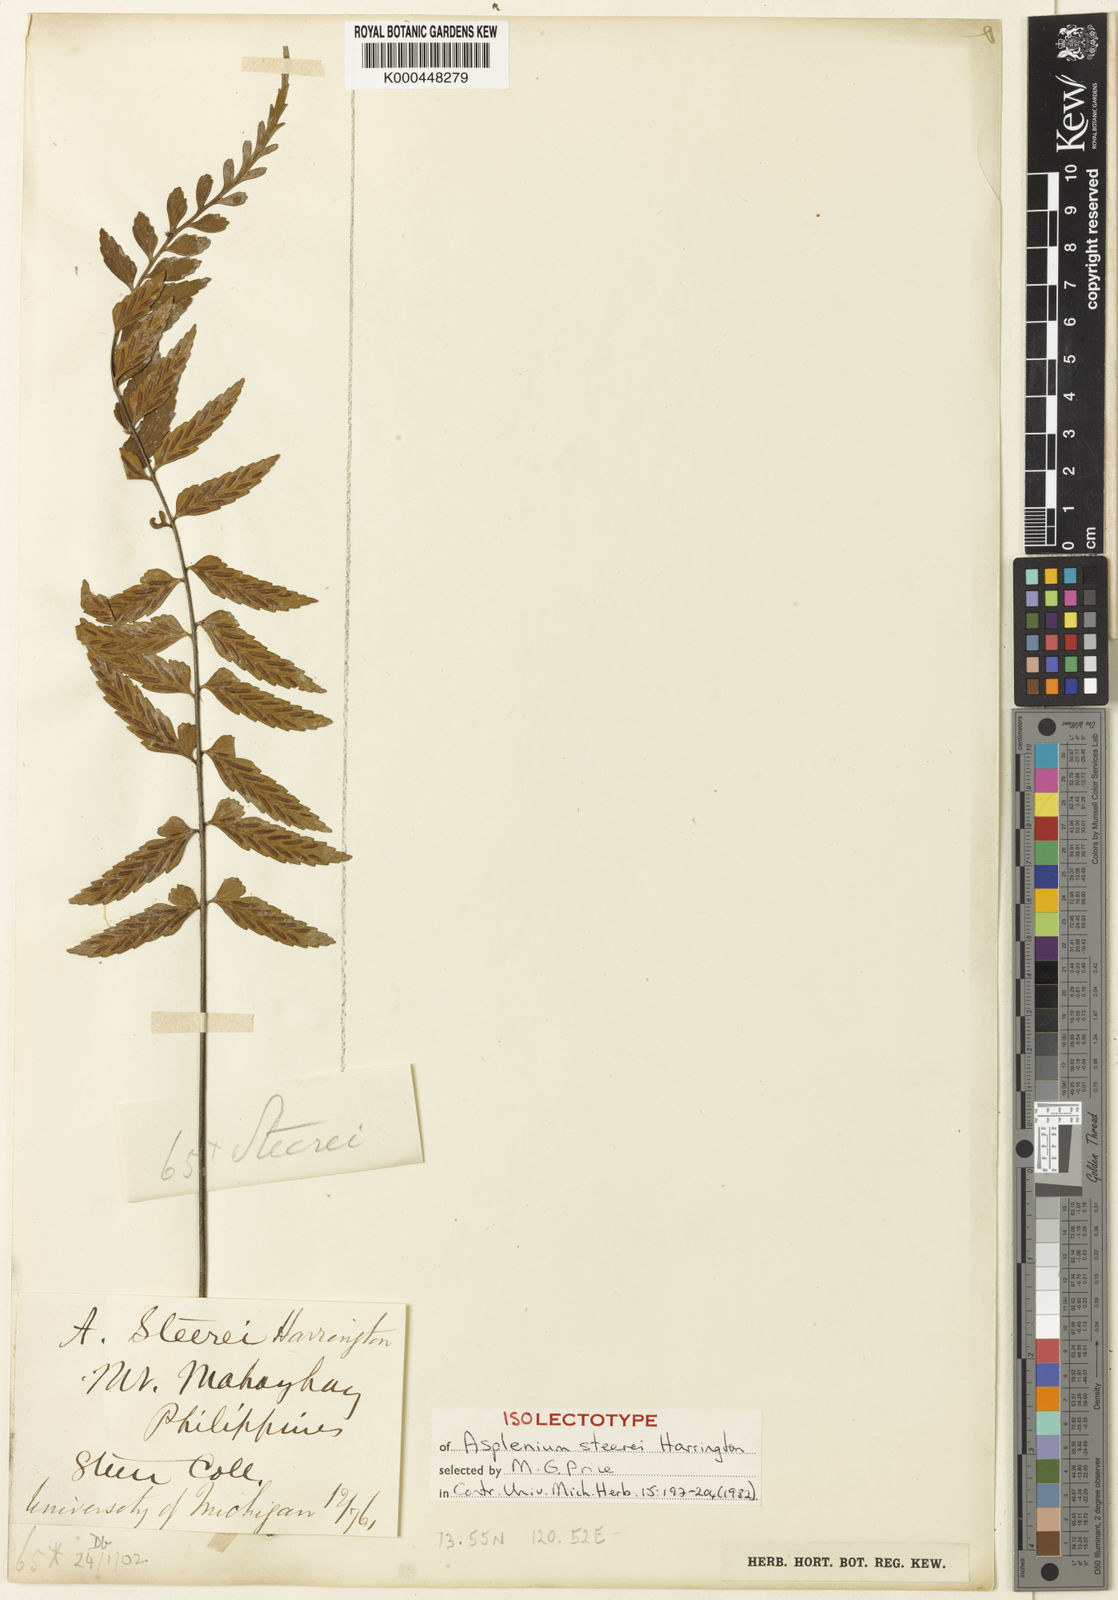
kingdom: Plantae
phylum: Tracheophyta
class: Polypodiopsida
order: Polypodiales
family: Aspleniaceae
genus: Asplenium
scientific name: Asplenium steerei
